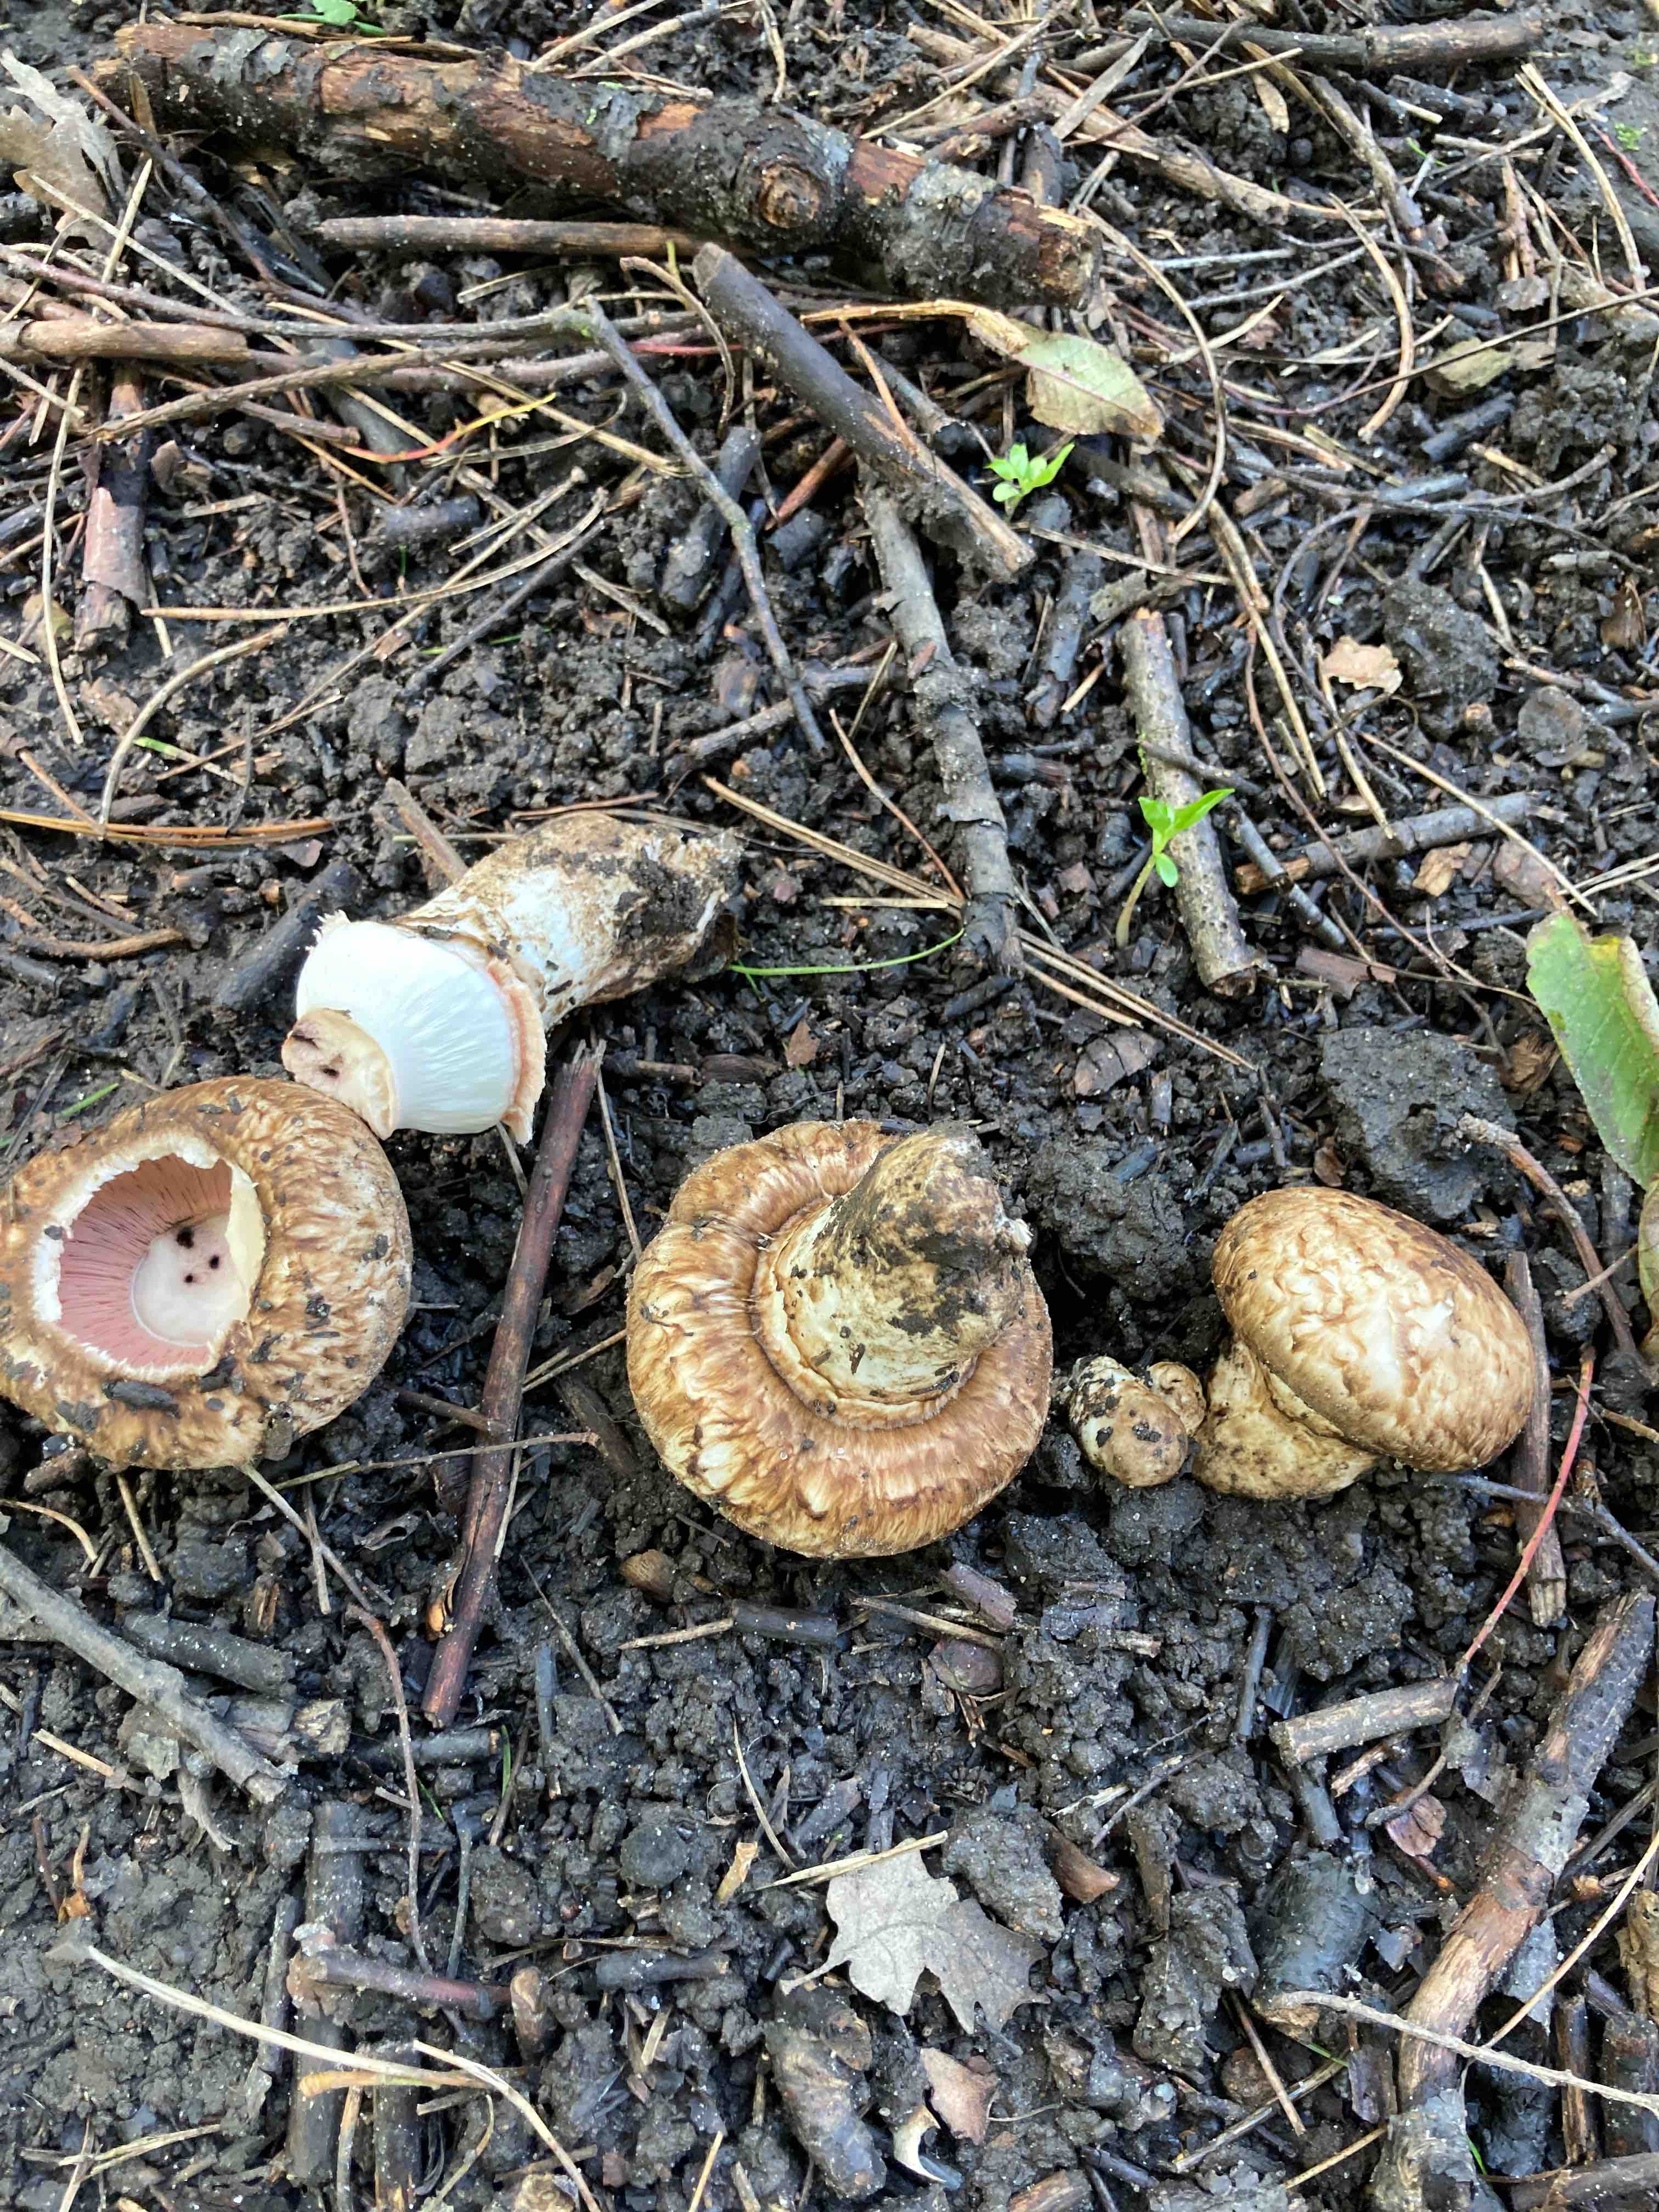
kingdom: Fungi
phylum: Basidiomycota
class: Agaricomycetes
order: Agaricales
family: Agaricaceae
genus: Agaricus
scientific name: Agaricus subperonatus
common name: knippe-champignon
